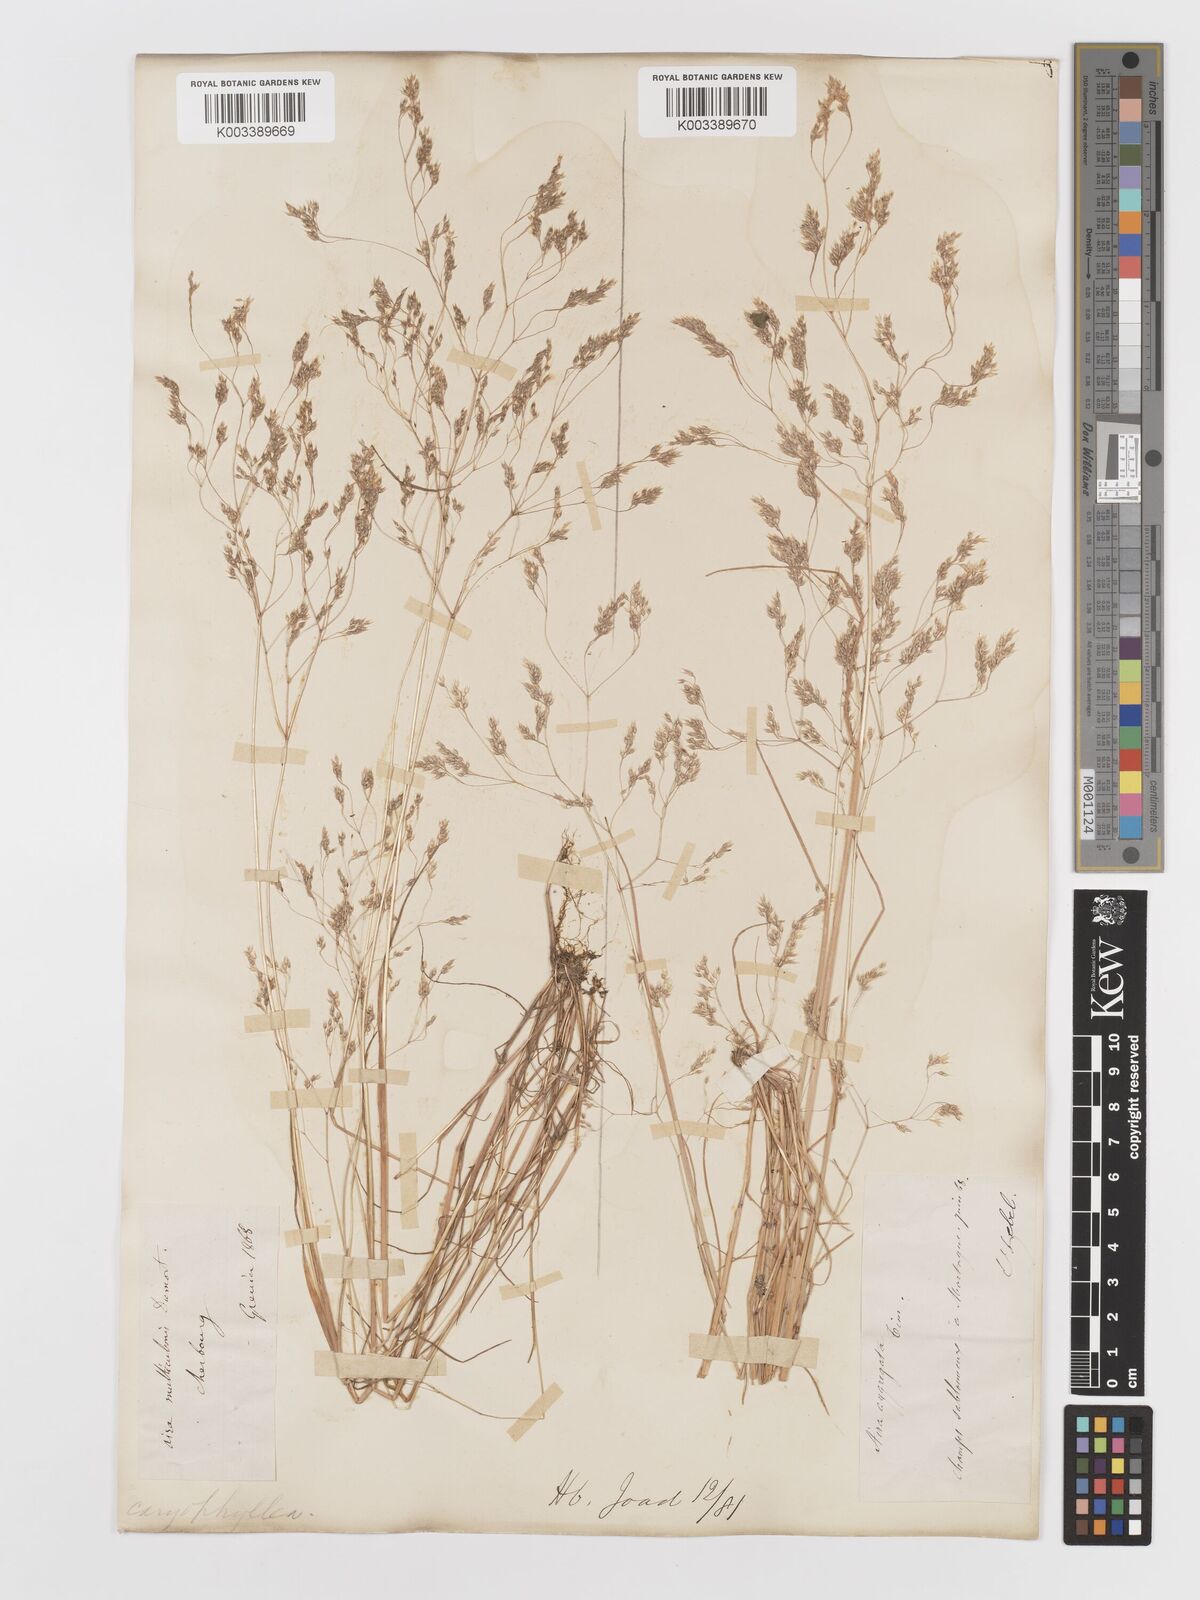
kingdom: Plantae
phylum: Tracheophyta
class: Liliopsida
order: Poales
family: Poaceae
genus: Aira
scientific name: Aira caryophyllea
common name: Silver hairgrass
